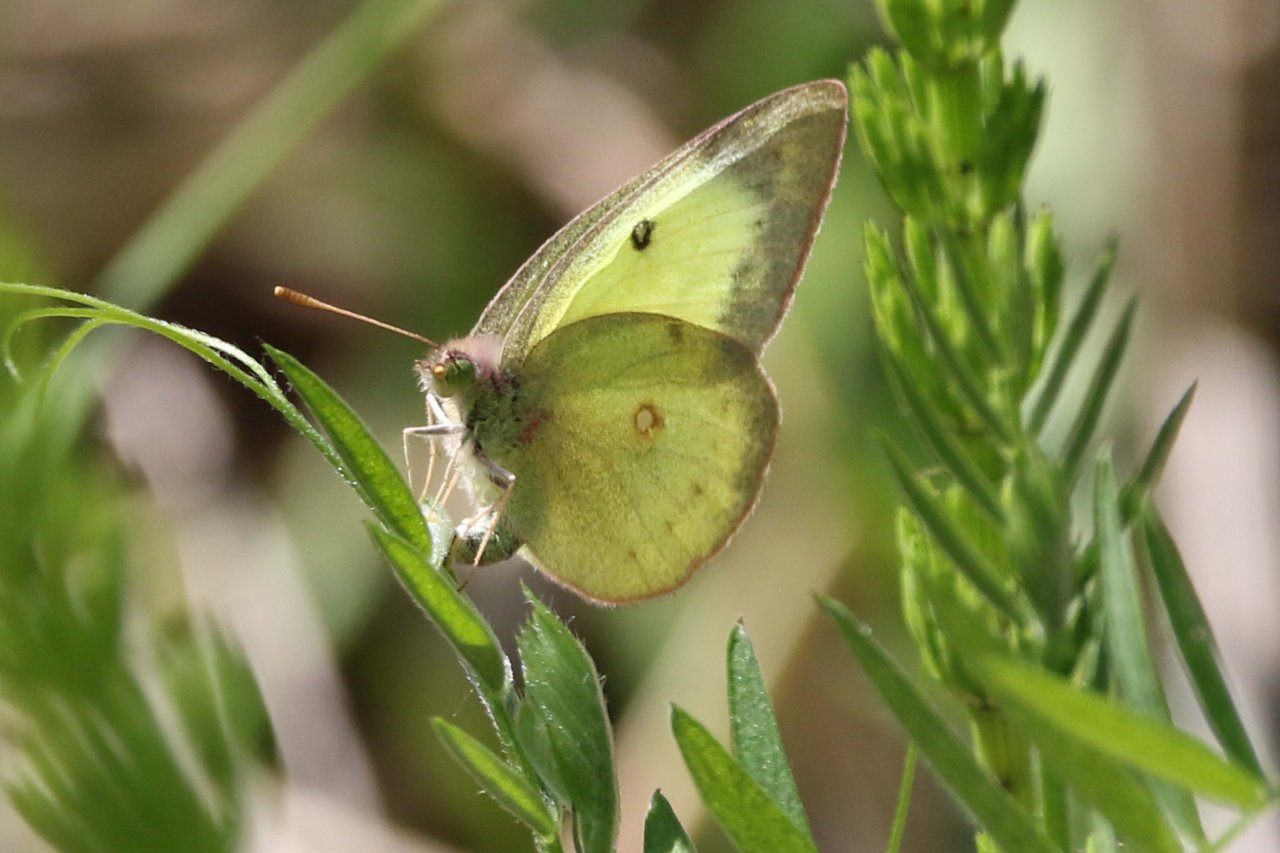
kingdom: Animalia
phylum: Arthropoda
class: Insecta
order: Lepidoptera
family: Pieridae
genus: Colias
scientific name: Colias philodice
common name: Clouded Sulphur
